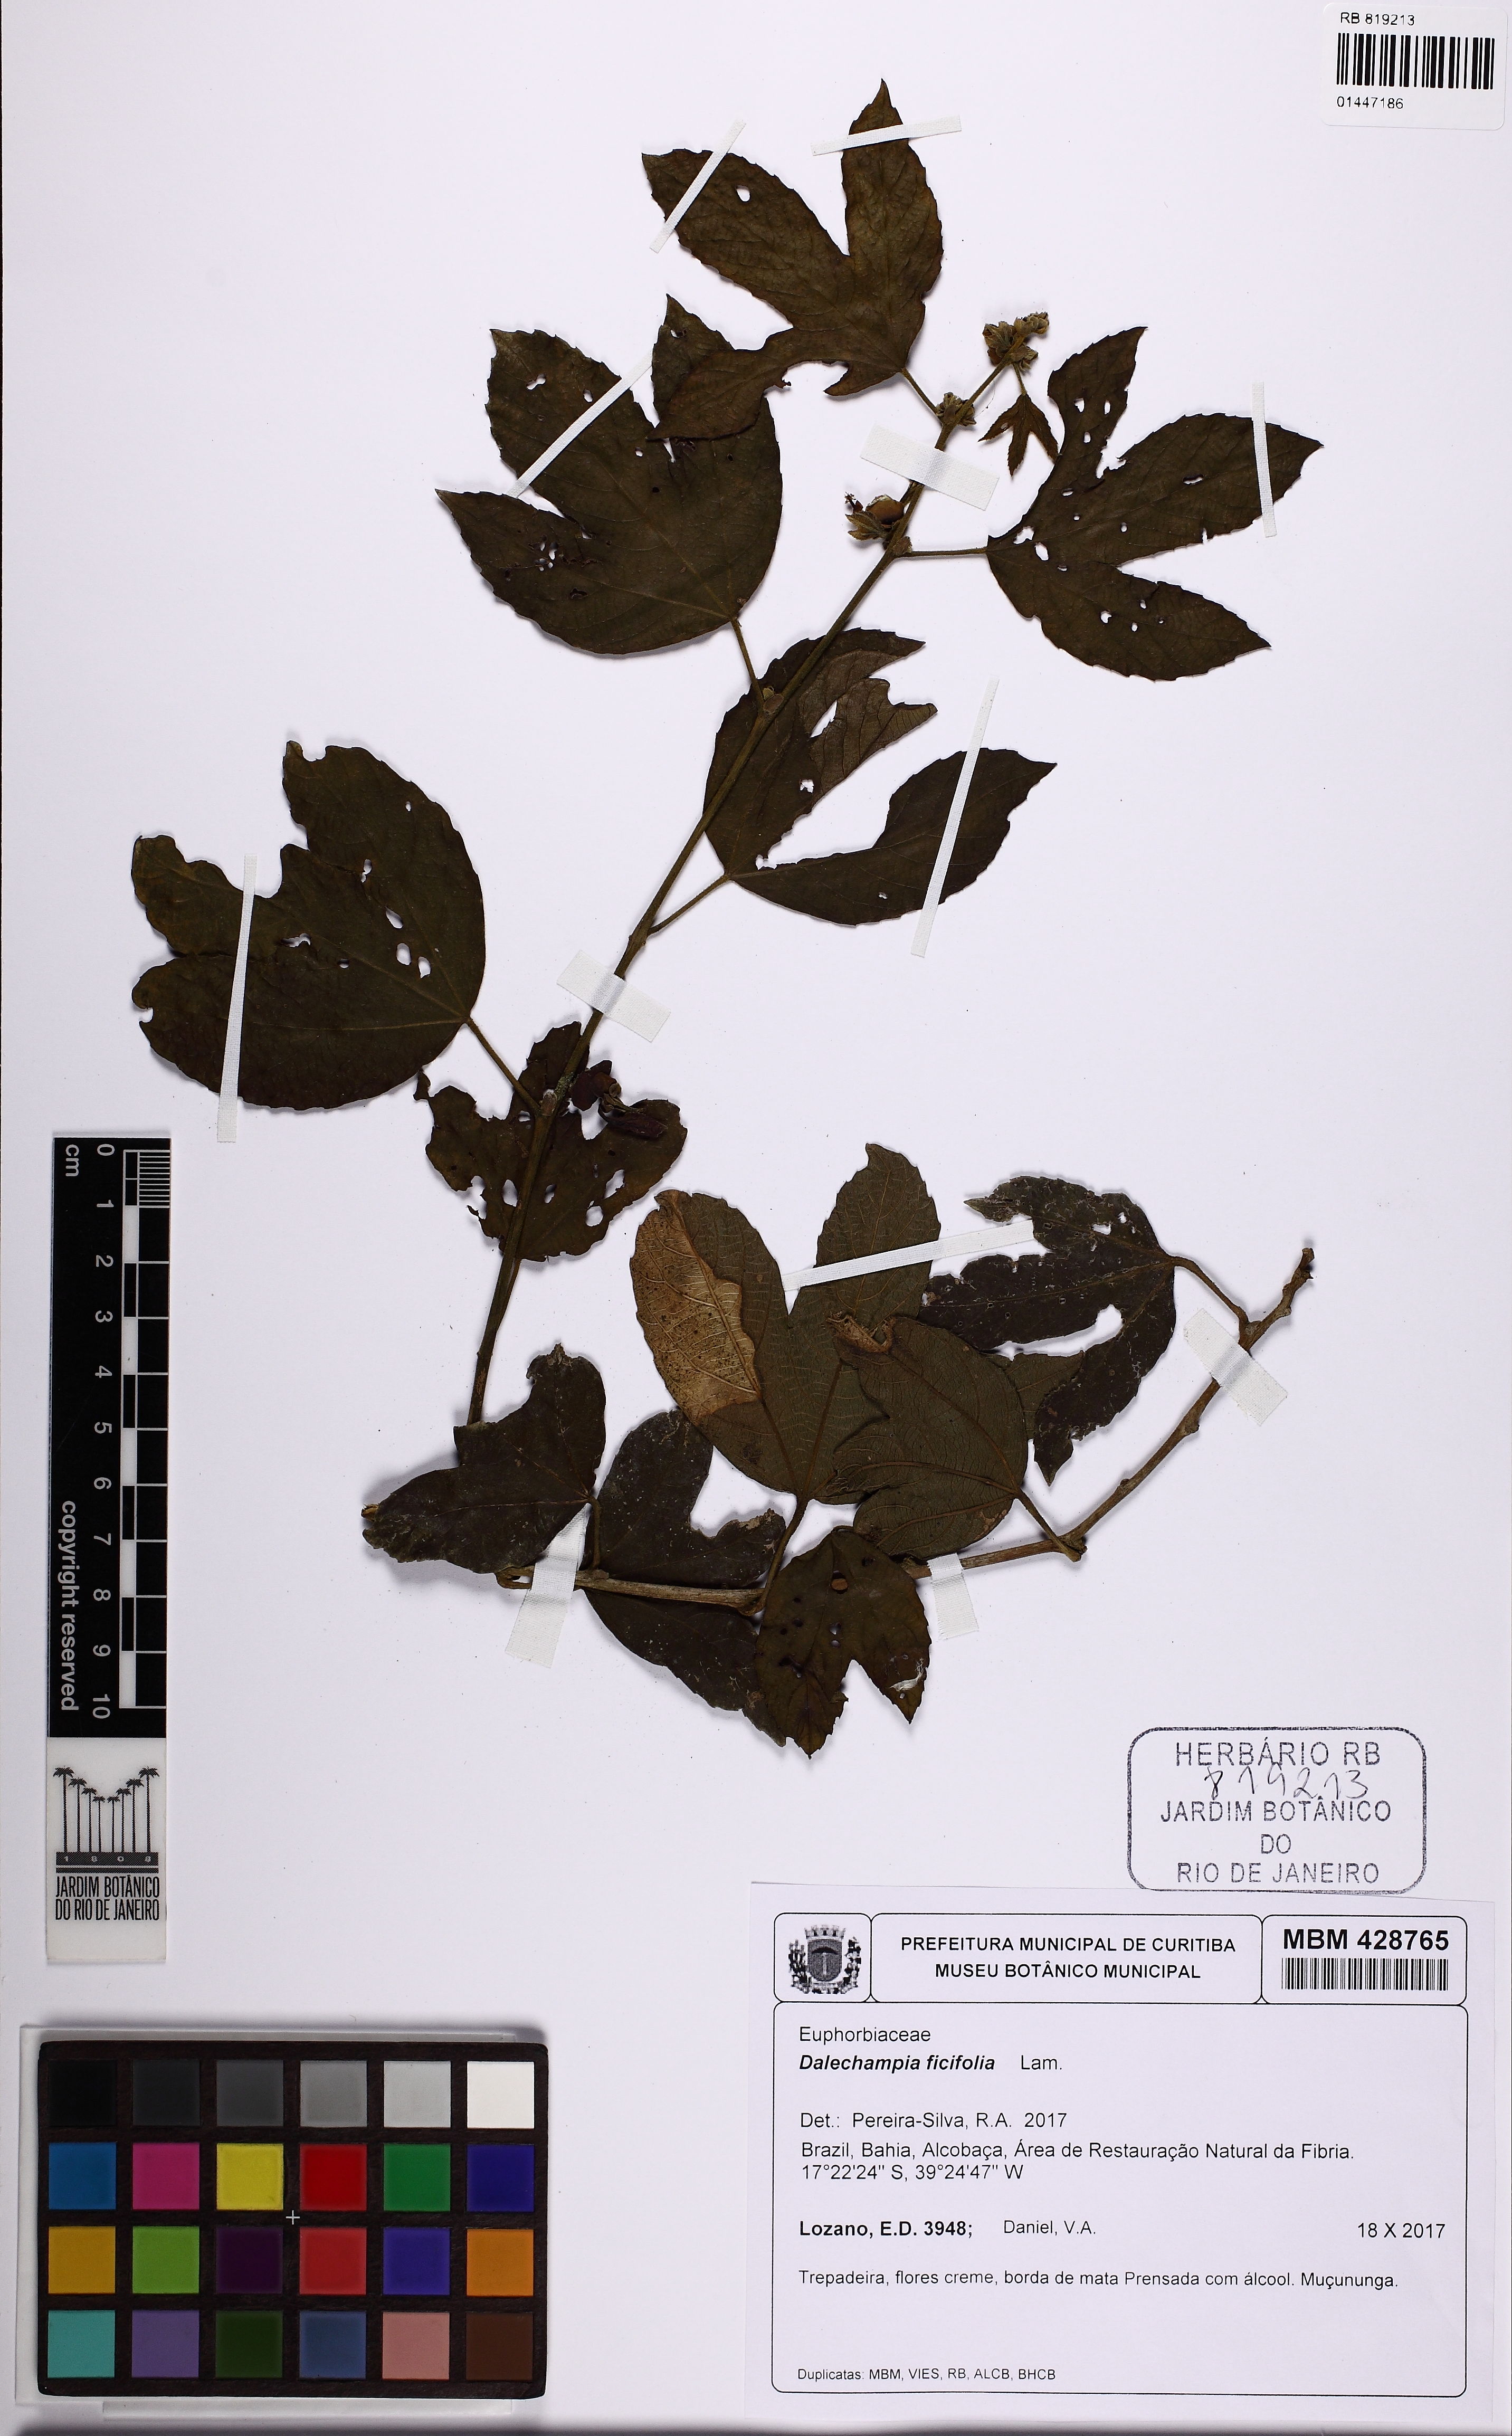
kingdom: Plantae
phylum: Tracheophyta
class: Magnoliopsida
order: Malpighiales
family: Euphorbiaceae
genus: Dalechampia
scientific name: Dalechampia ficifolia
